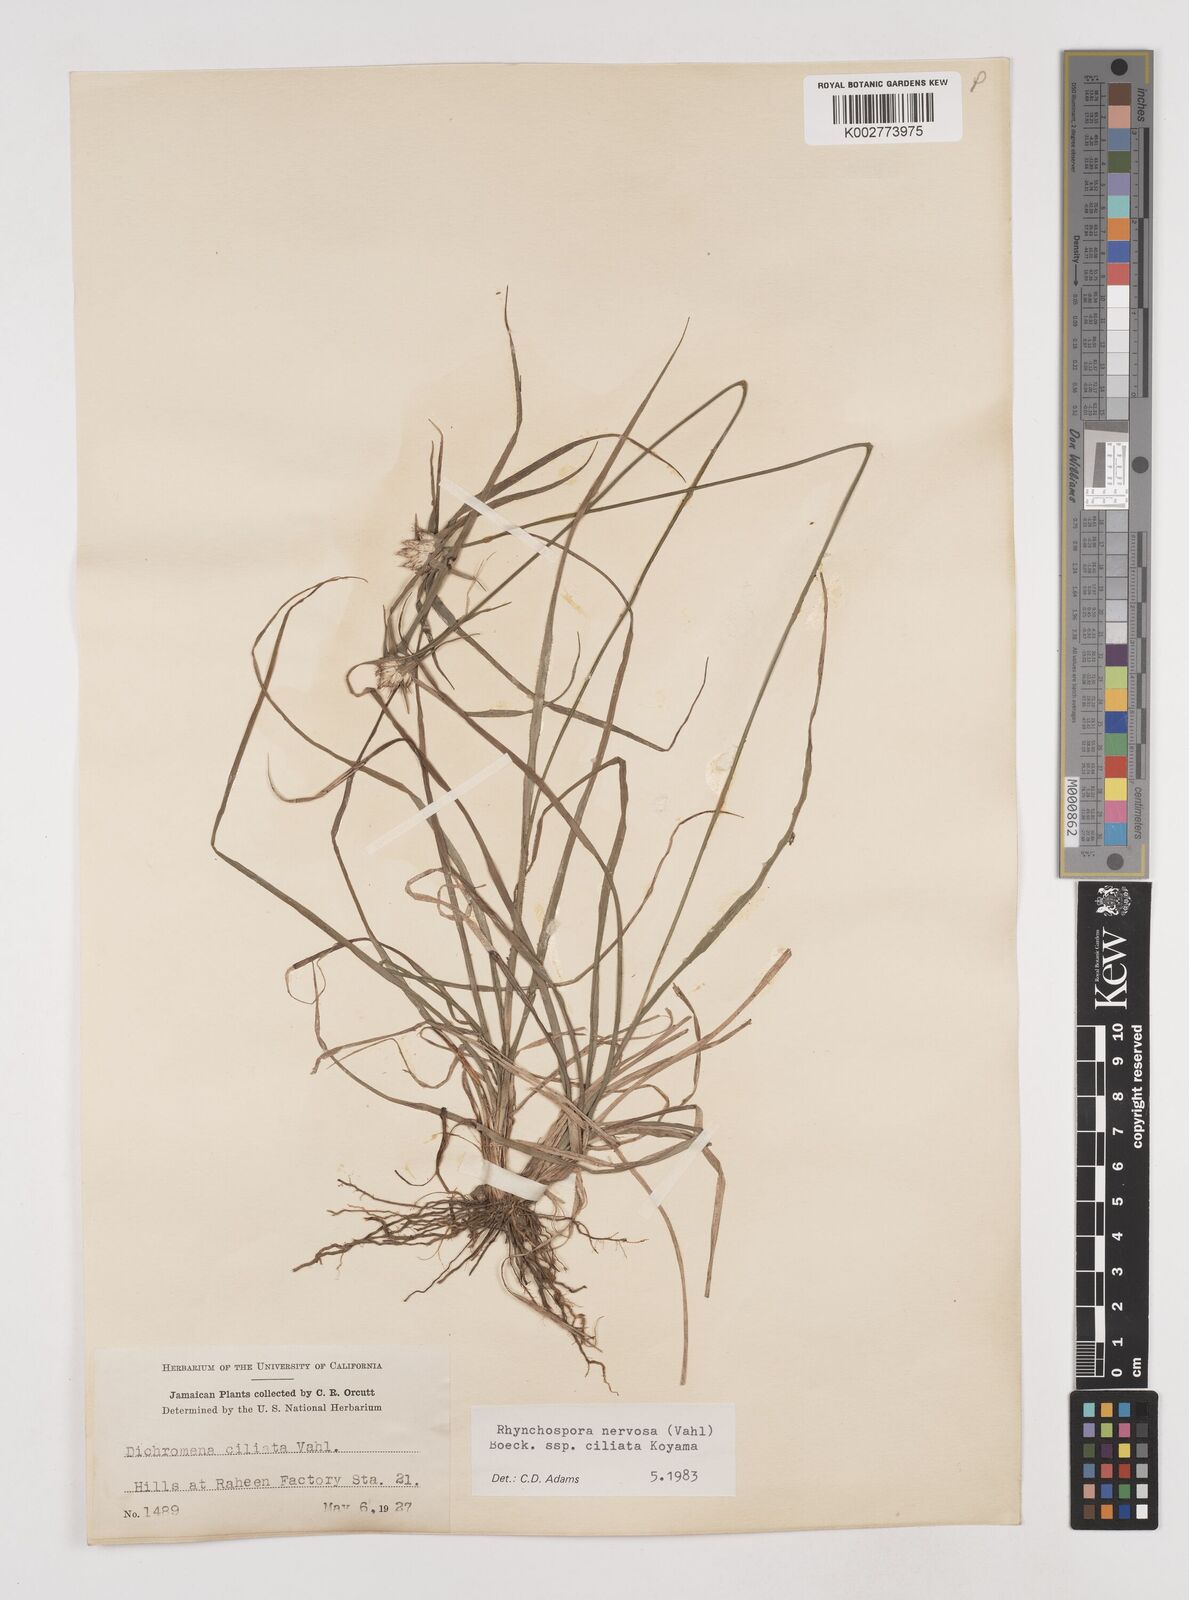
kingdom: Plantae
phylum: Tracheophyta
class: Liliopsida
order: Poales
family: Cyperaceae
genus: Rhynchospora
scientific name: Rhynchospora pura
